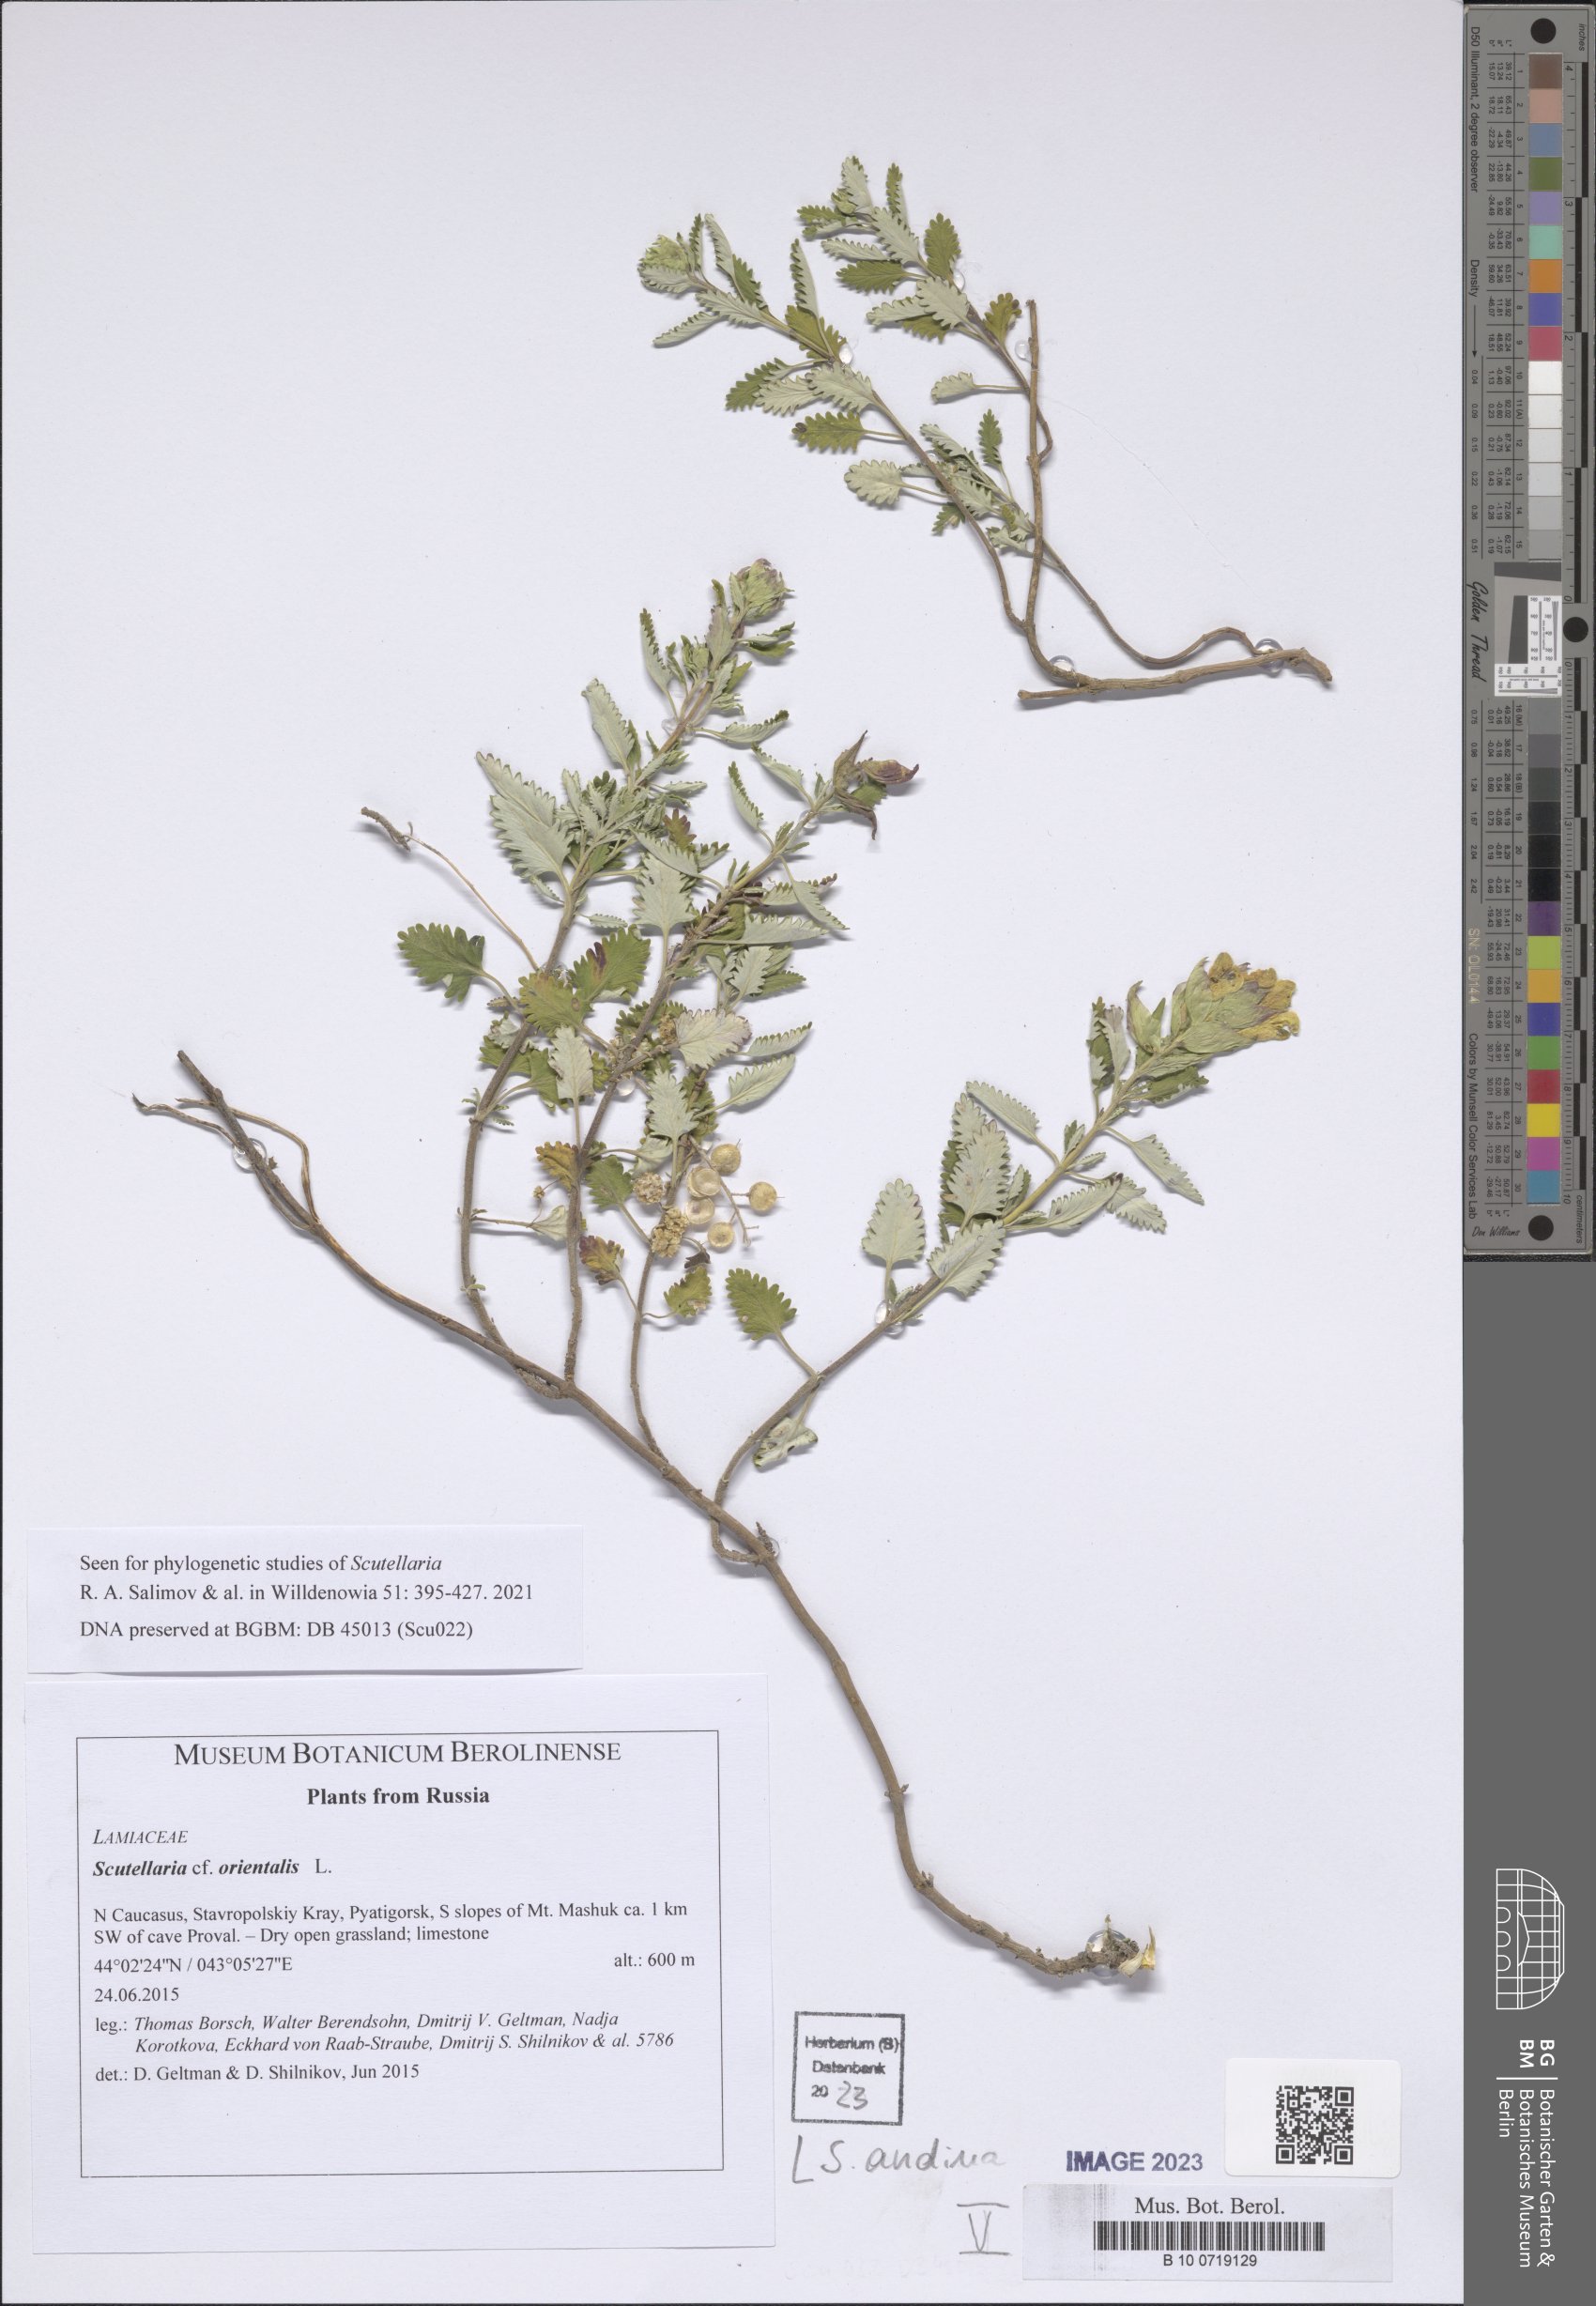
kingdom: Plantae
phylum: Tracheophyta
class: Magnoliopsida
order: Lamiales
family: Lamiaceae
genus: Scutellaria
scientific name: Scutellaria andina
